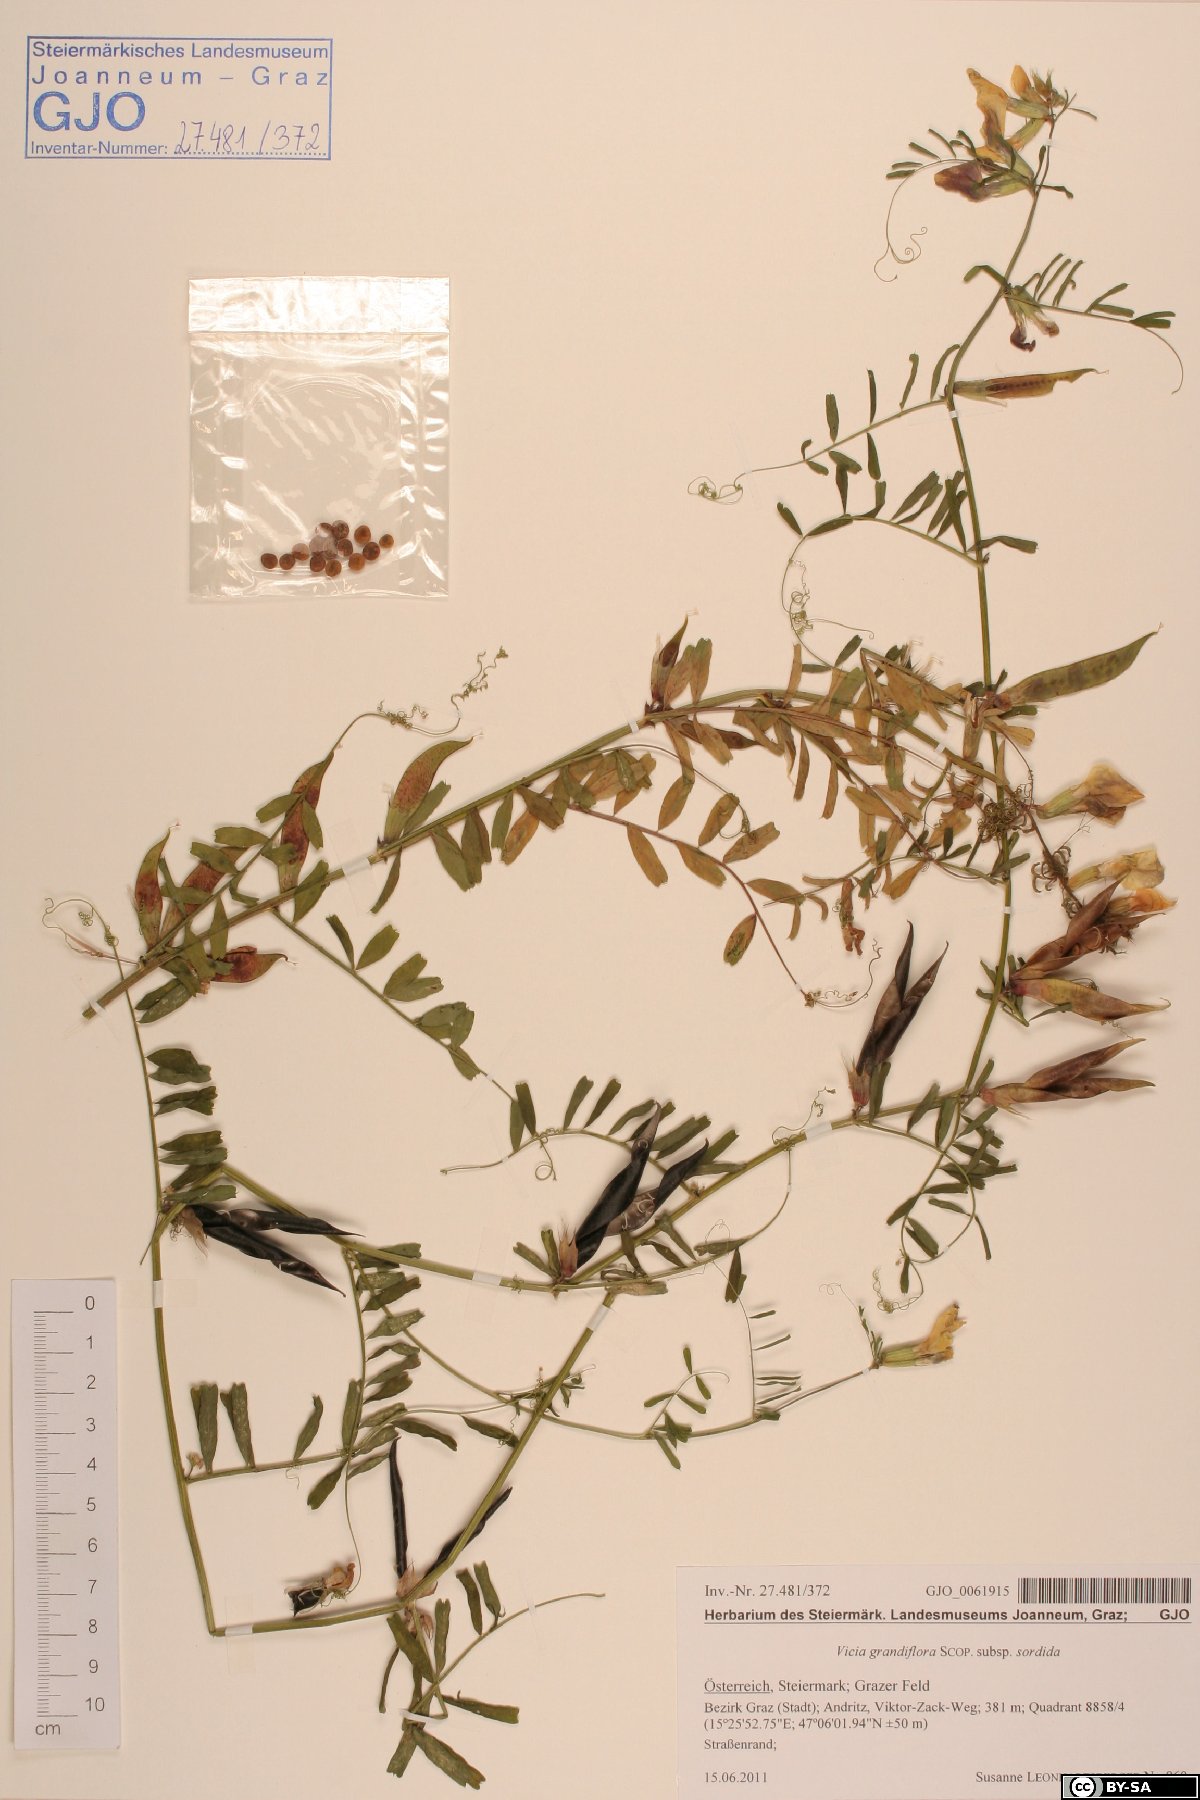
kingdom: Plantae
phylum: Tracheophyta
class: Magnoliopsida
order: Fabales
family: Fabaceae
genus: Vicia
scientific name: Vicia grandiflora
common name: Large yellow vetch
